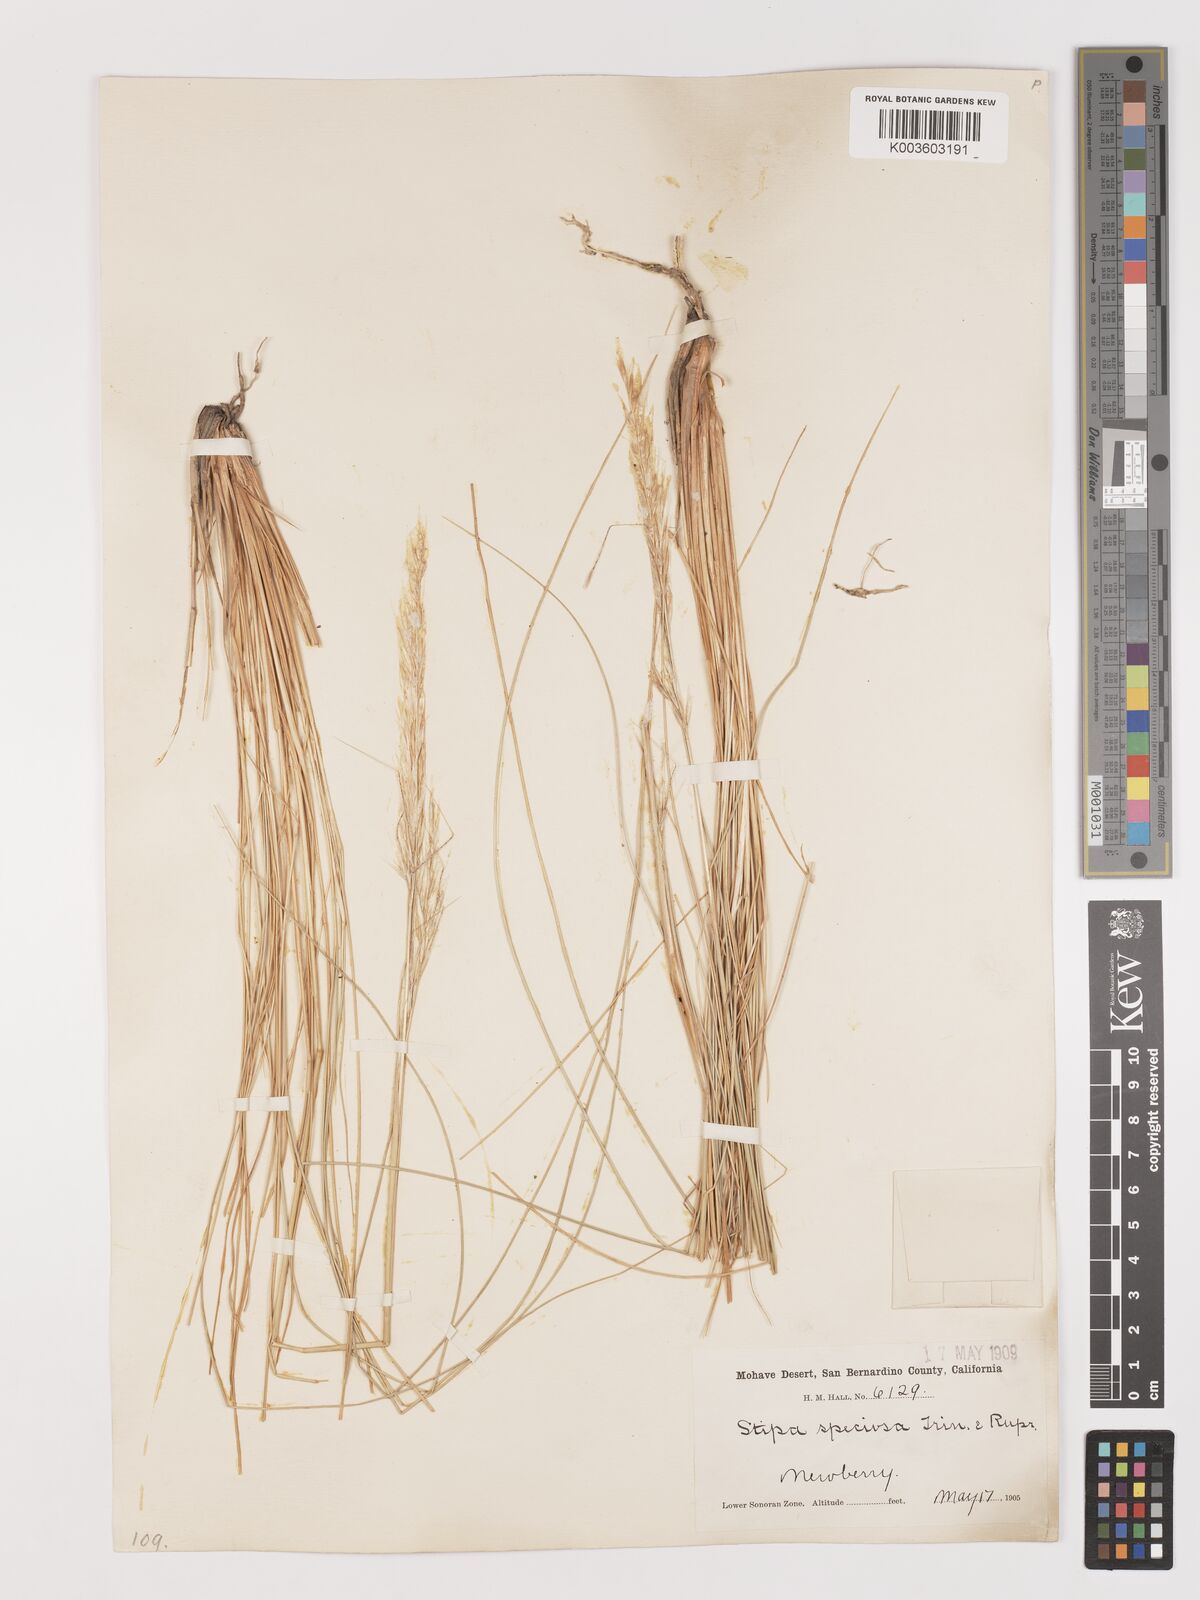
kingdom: Plantae
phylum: Tracheophyta
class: Liliopsida
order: Poales
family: Poaceae
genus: Pappostipa
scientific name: Pappostipa speciosa
